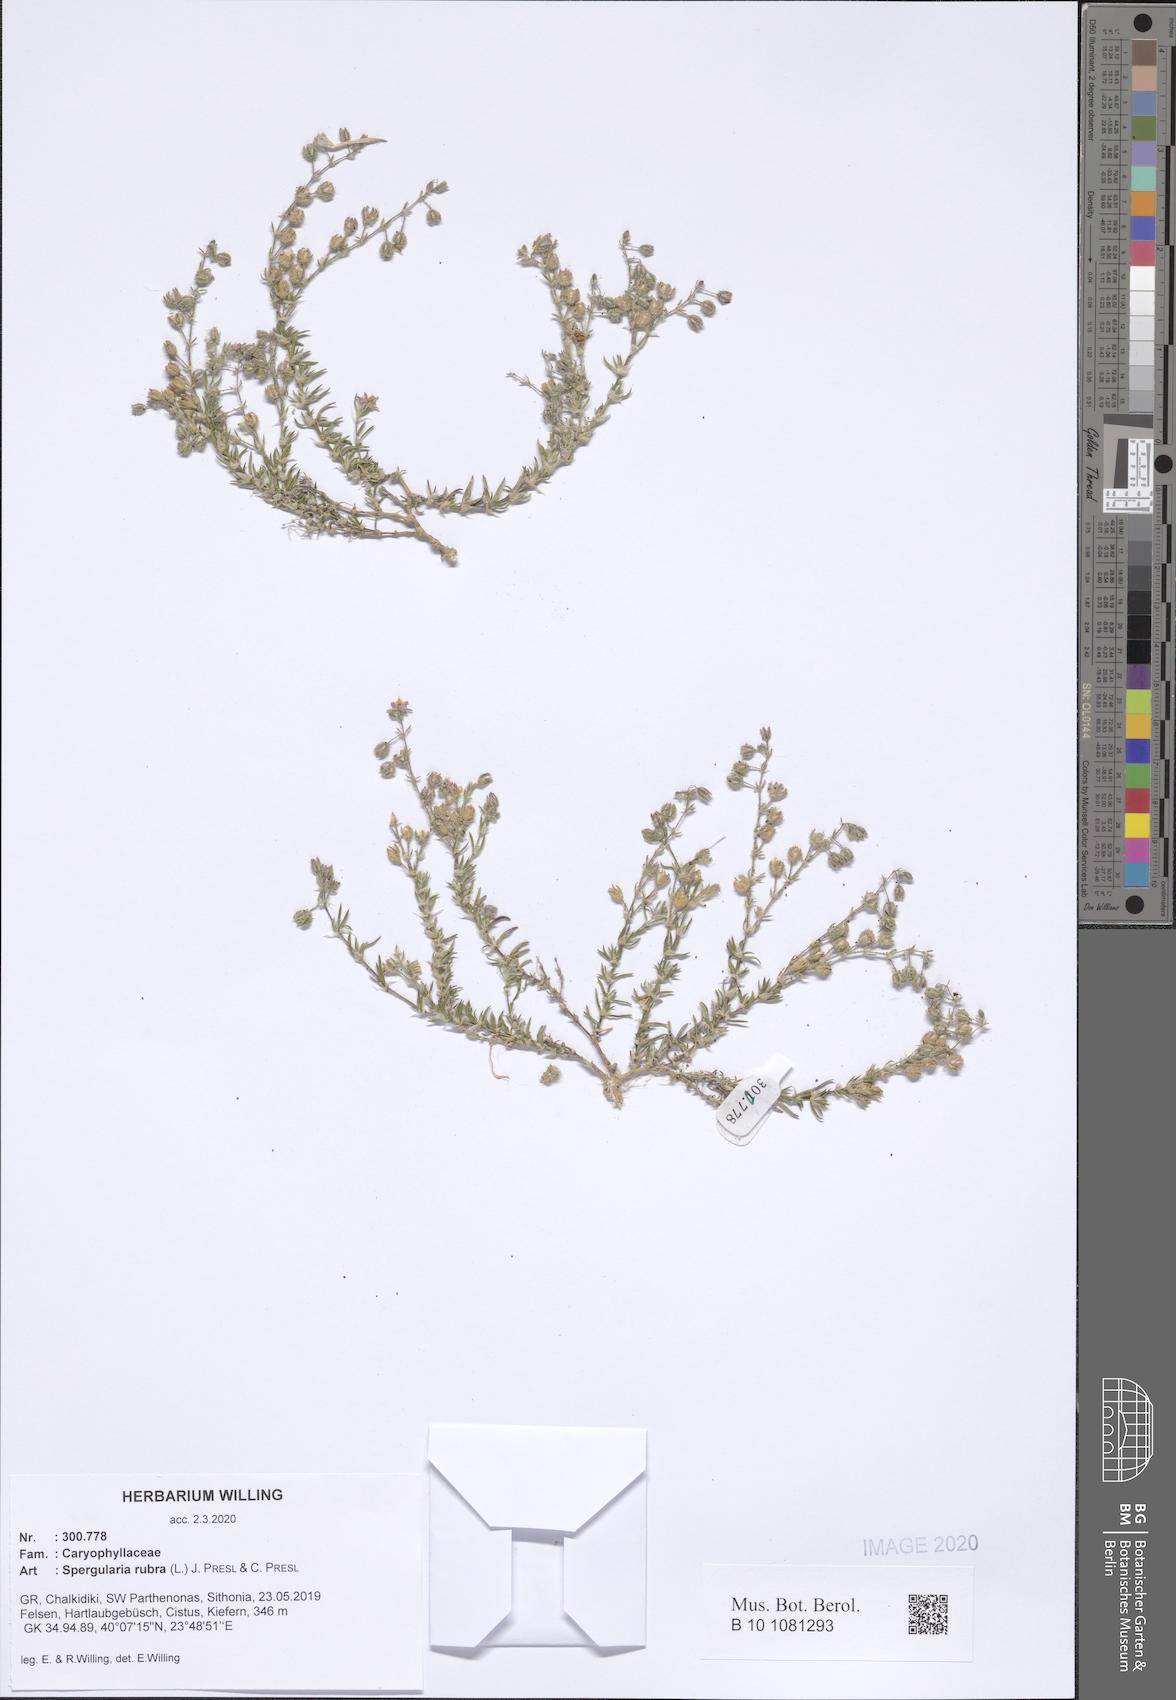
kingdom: Plantae
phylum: Tracheophyta
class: Magnoliopsida
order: Caryophyllales
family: Caryophyllaceae
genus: Spergularia
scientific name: Spergularia rubra
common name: Red sand-spurrey
